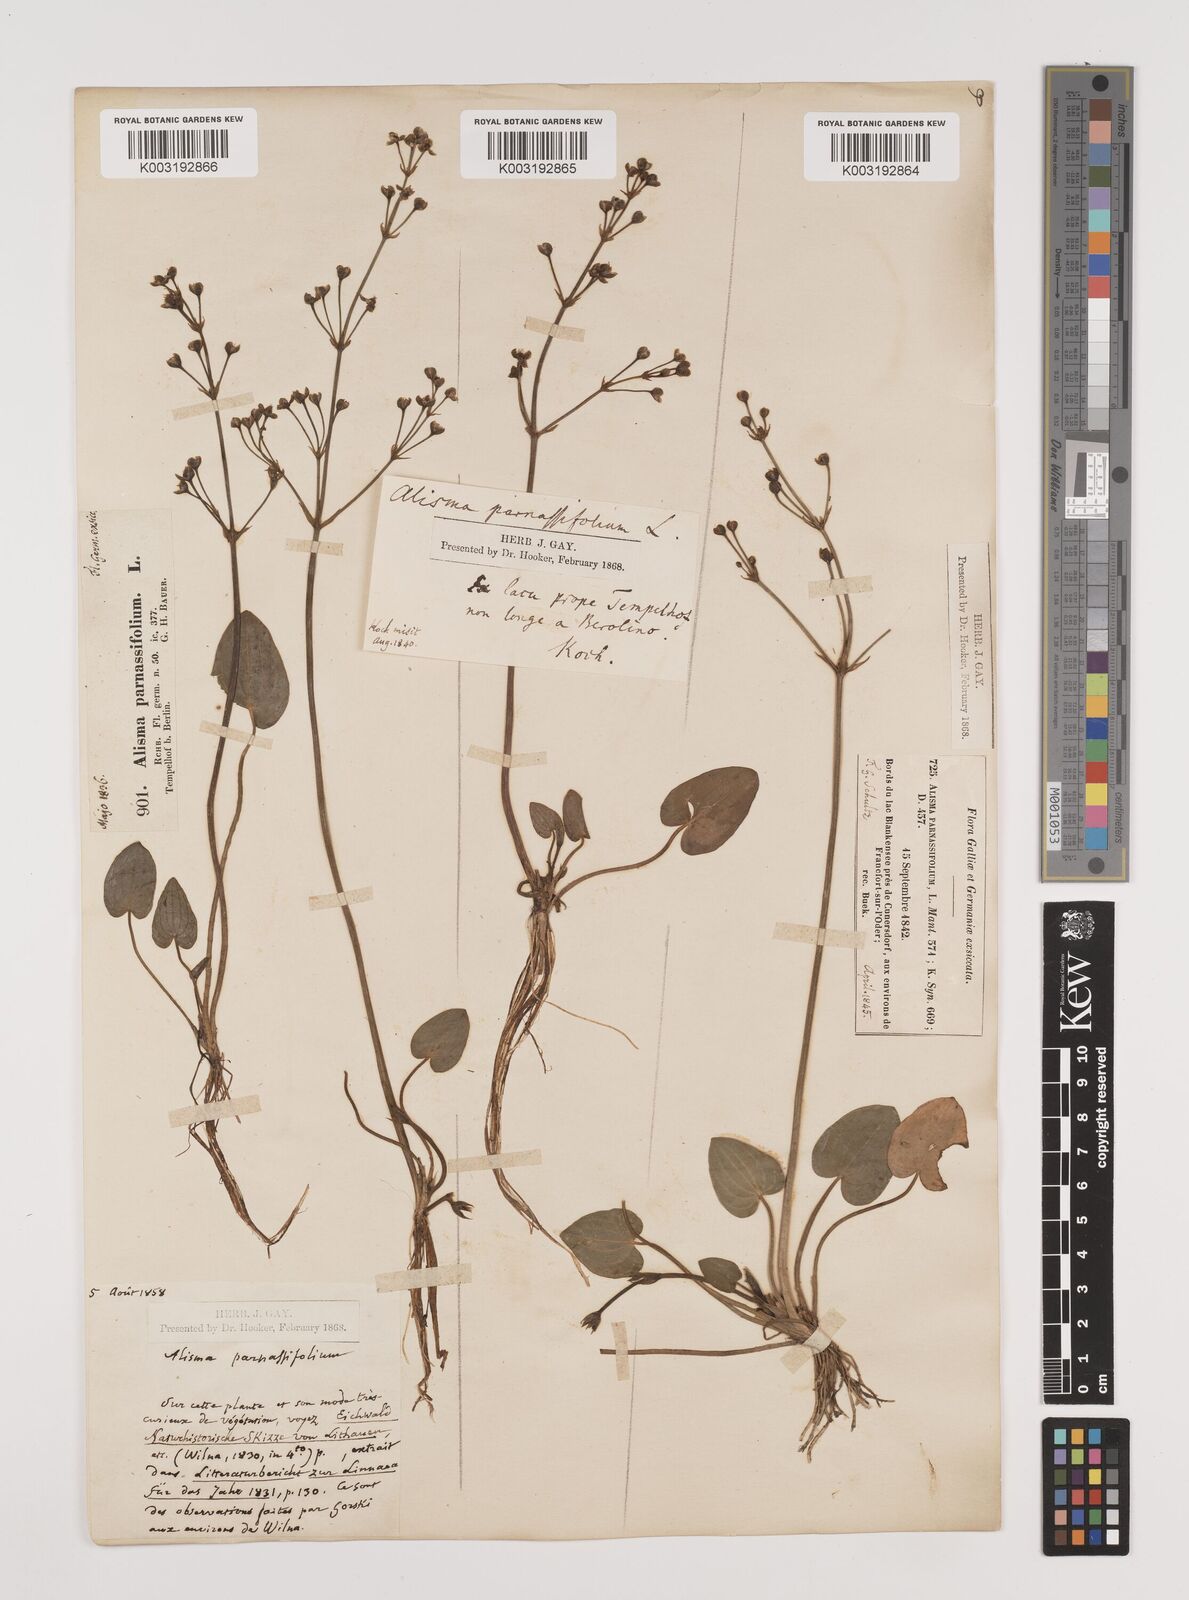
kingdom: Plantae
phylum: Tracheophyta
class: Liliopsida
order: Alismatales
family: Alismataceae
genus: Caldesia
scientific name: Caldesia parnassifolia
